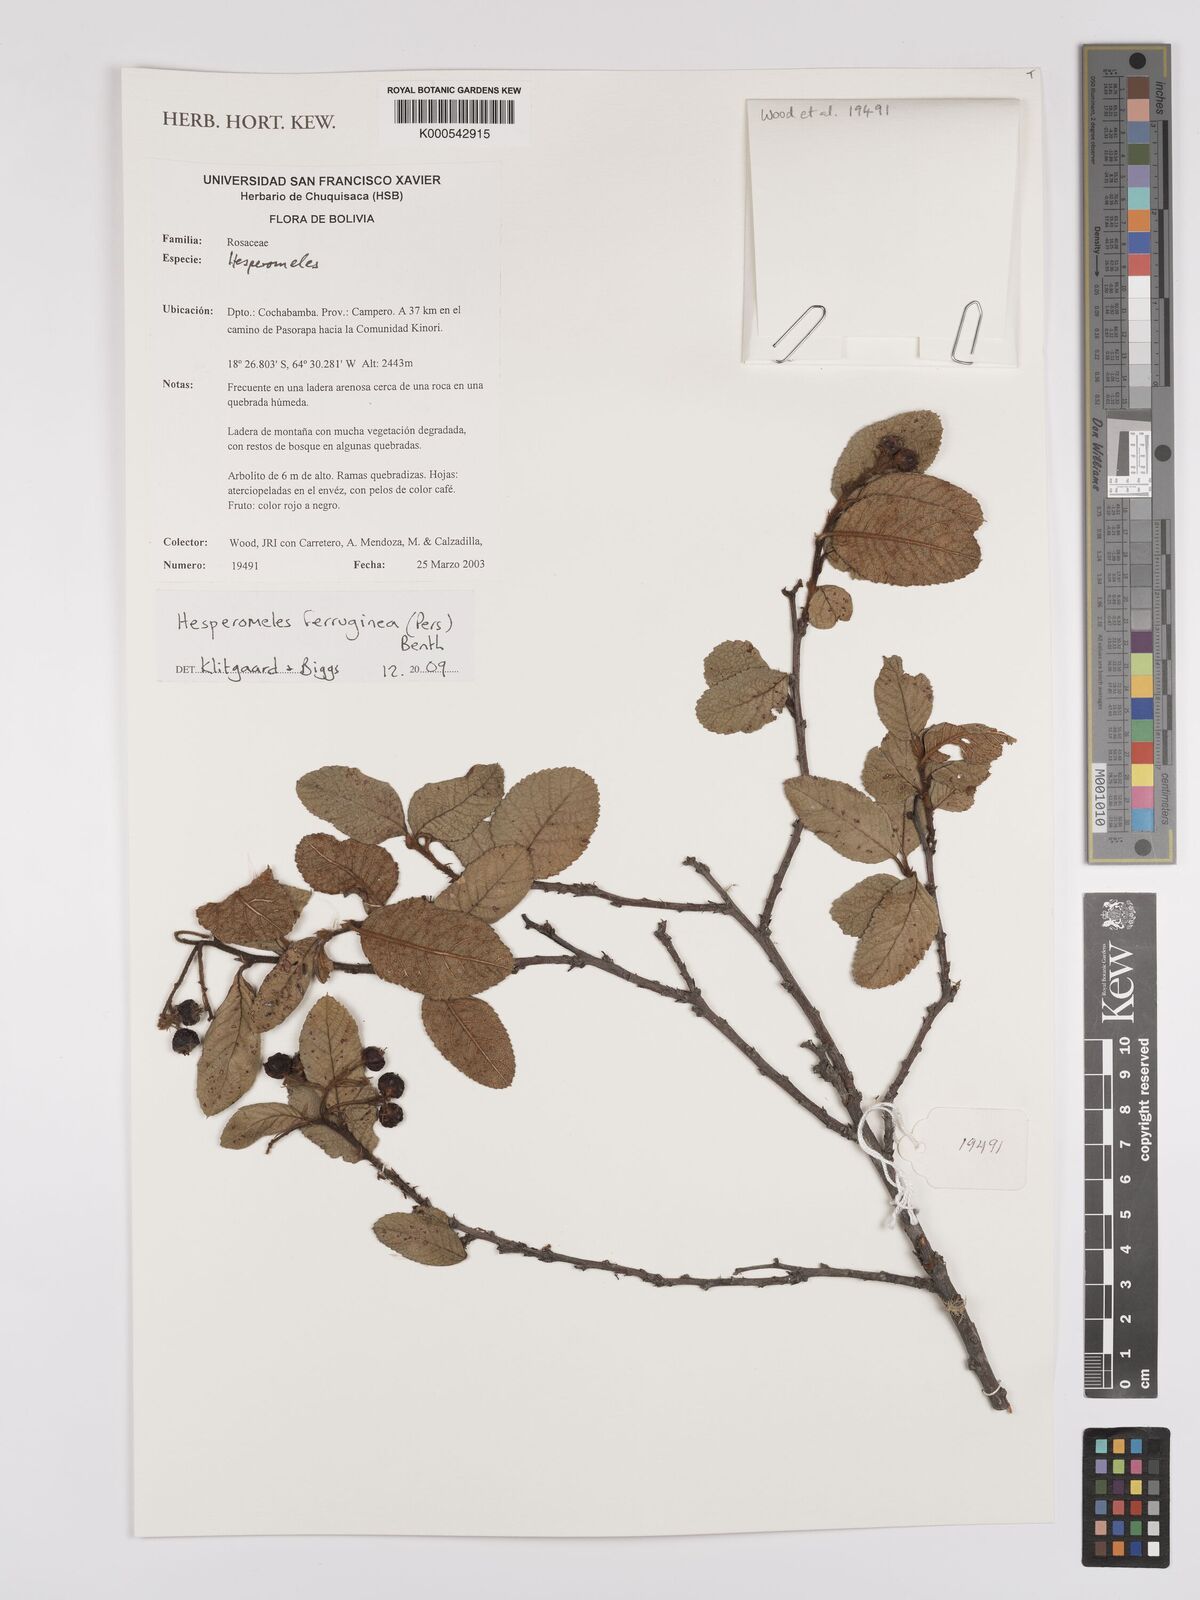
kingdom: Plantae
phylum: Tracheophyta
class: Magnoliopsida
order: Rosales
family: Rosaceae
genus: Hesperomeles
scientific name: Hesperomeles ferruginea
